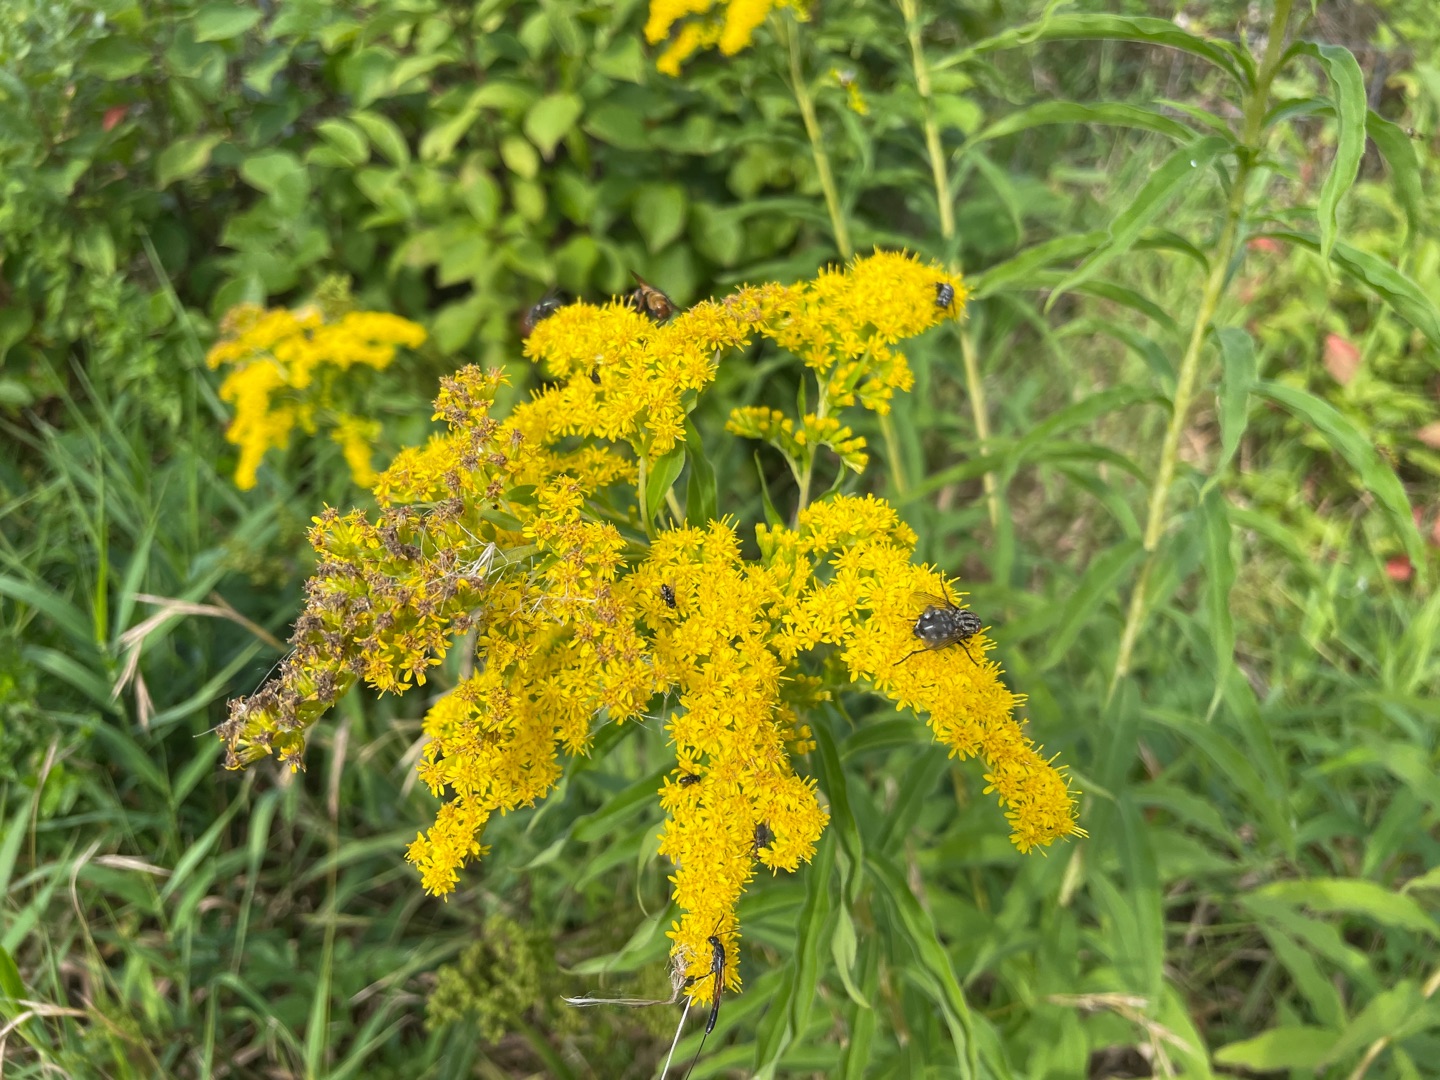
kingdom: Plantae
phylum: Tracheophyta
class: Magnoliopsida
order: Asterales
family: Asteraceae
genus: Solidago
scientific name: Solidago gigantea
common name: Sildig gyldenris
